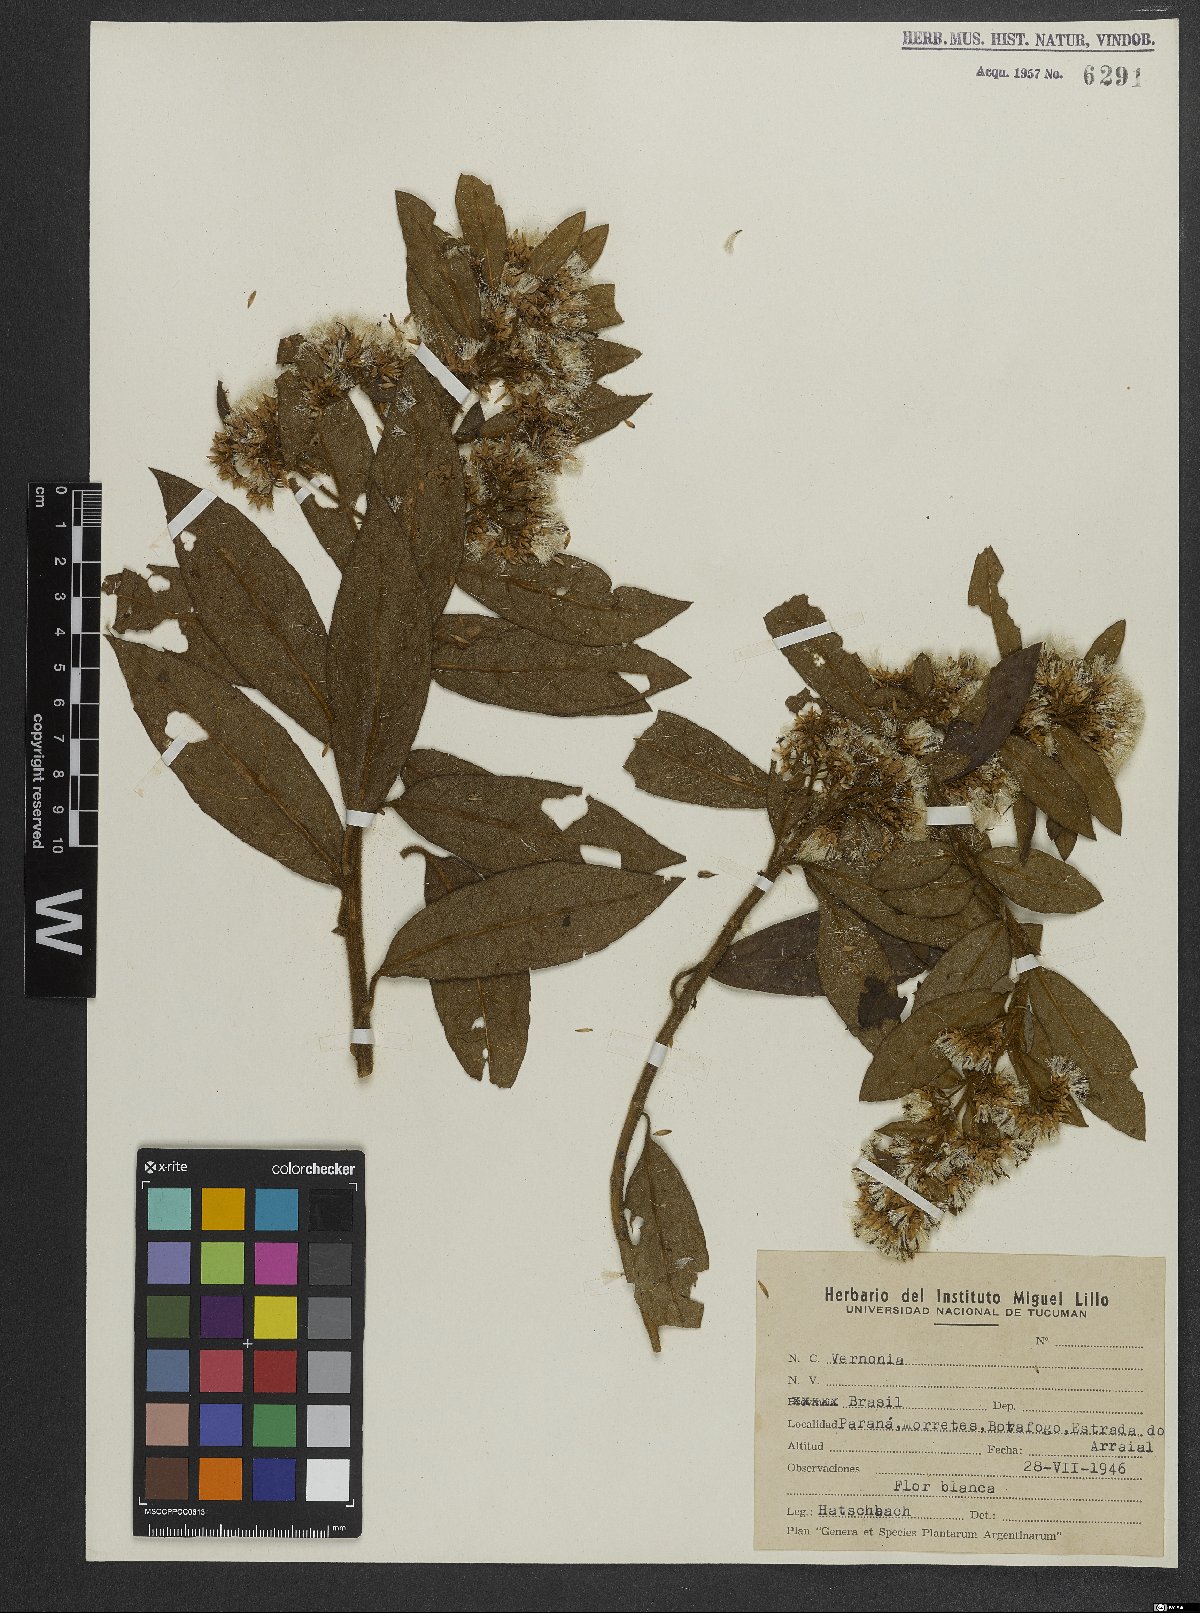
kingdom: Plantae
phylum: Tracheophyta
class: Magnoliopsida
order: Asterales
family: Asteraceae
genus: Vernonia
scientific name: Vernonia
